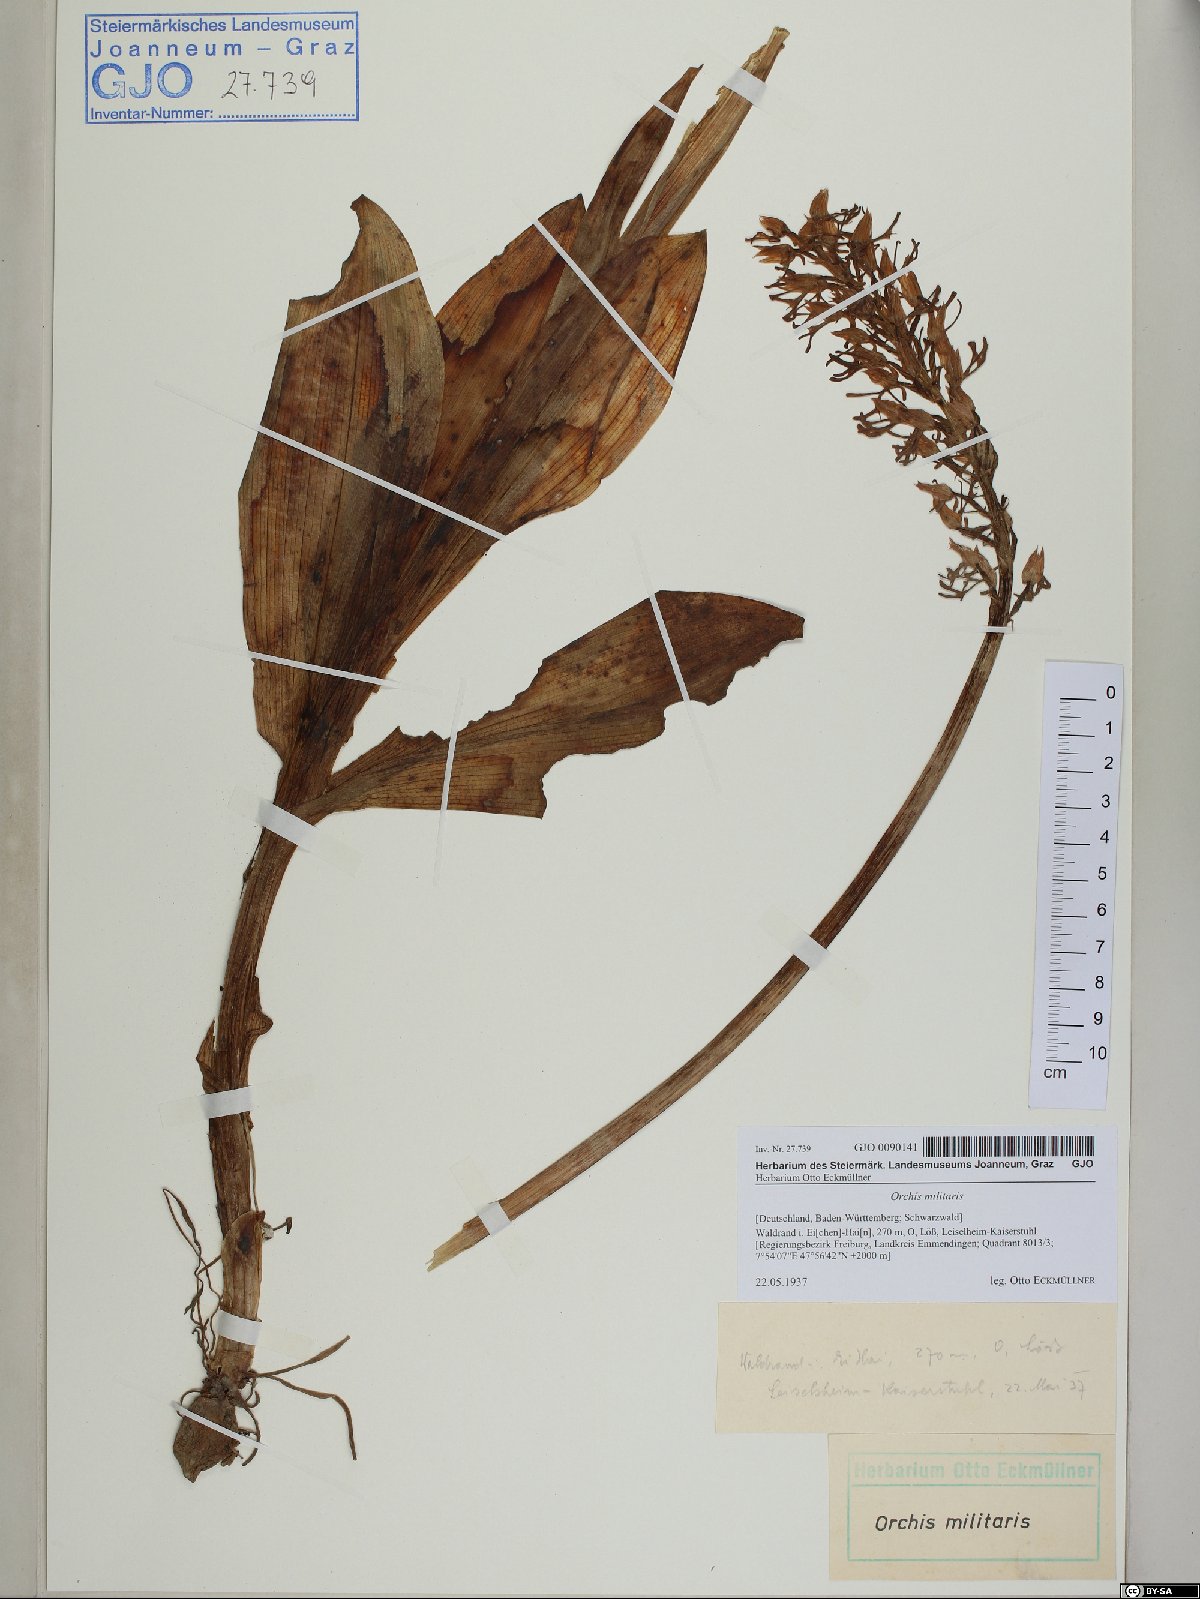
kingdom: Plantae
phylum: Tracheophyta
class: Liliopsida
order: Asparagales
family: Orchidaceae
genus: Orchis
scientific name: Orchis militaris
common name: Military orchid
